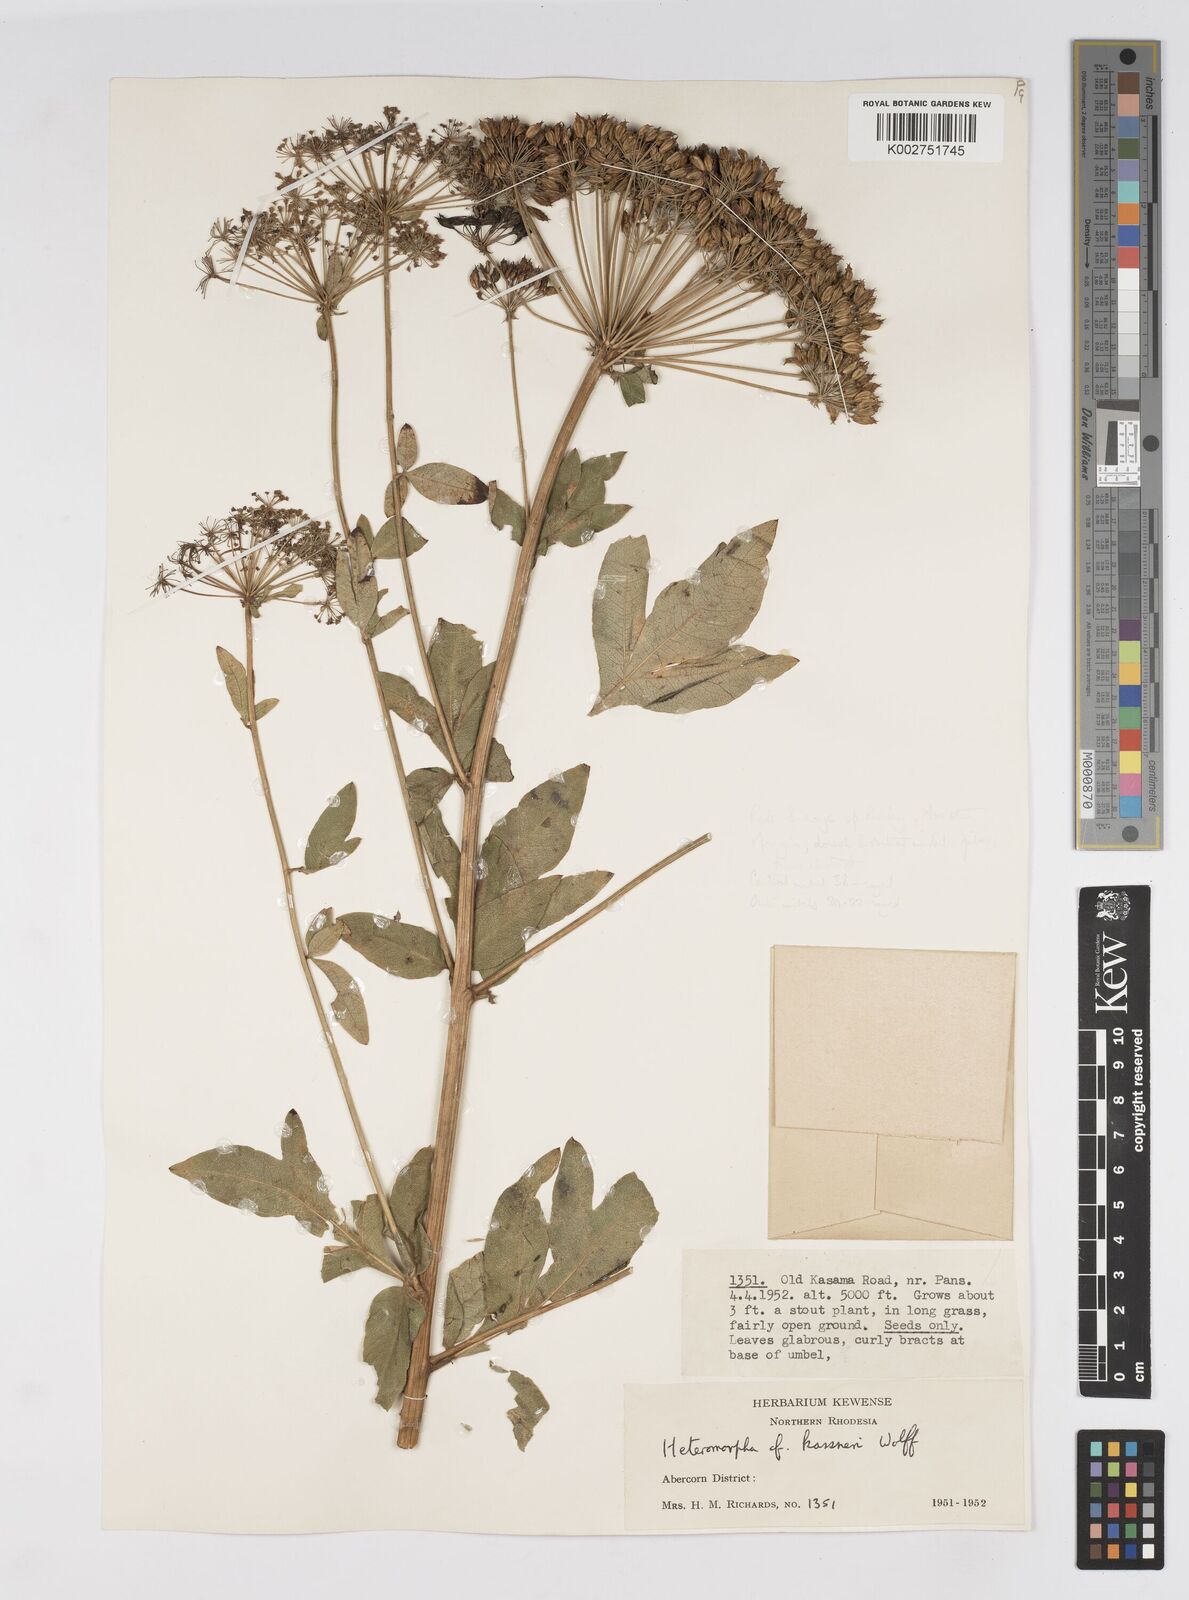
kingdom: Plantae
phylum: Tracheophyta
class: Magnoliopsida
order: Apiales
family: Apiaceae
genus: Heteromorpha
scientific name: Heteromorpha involucrata
